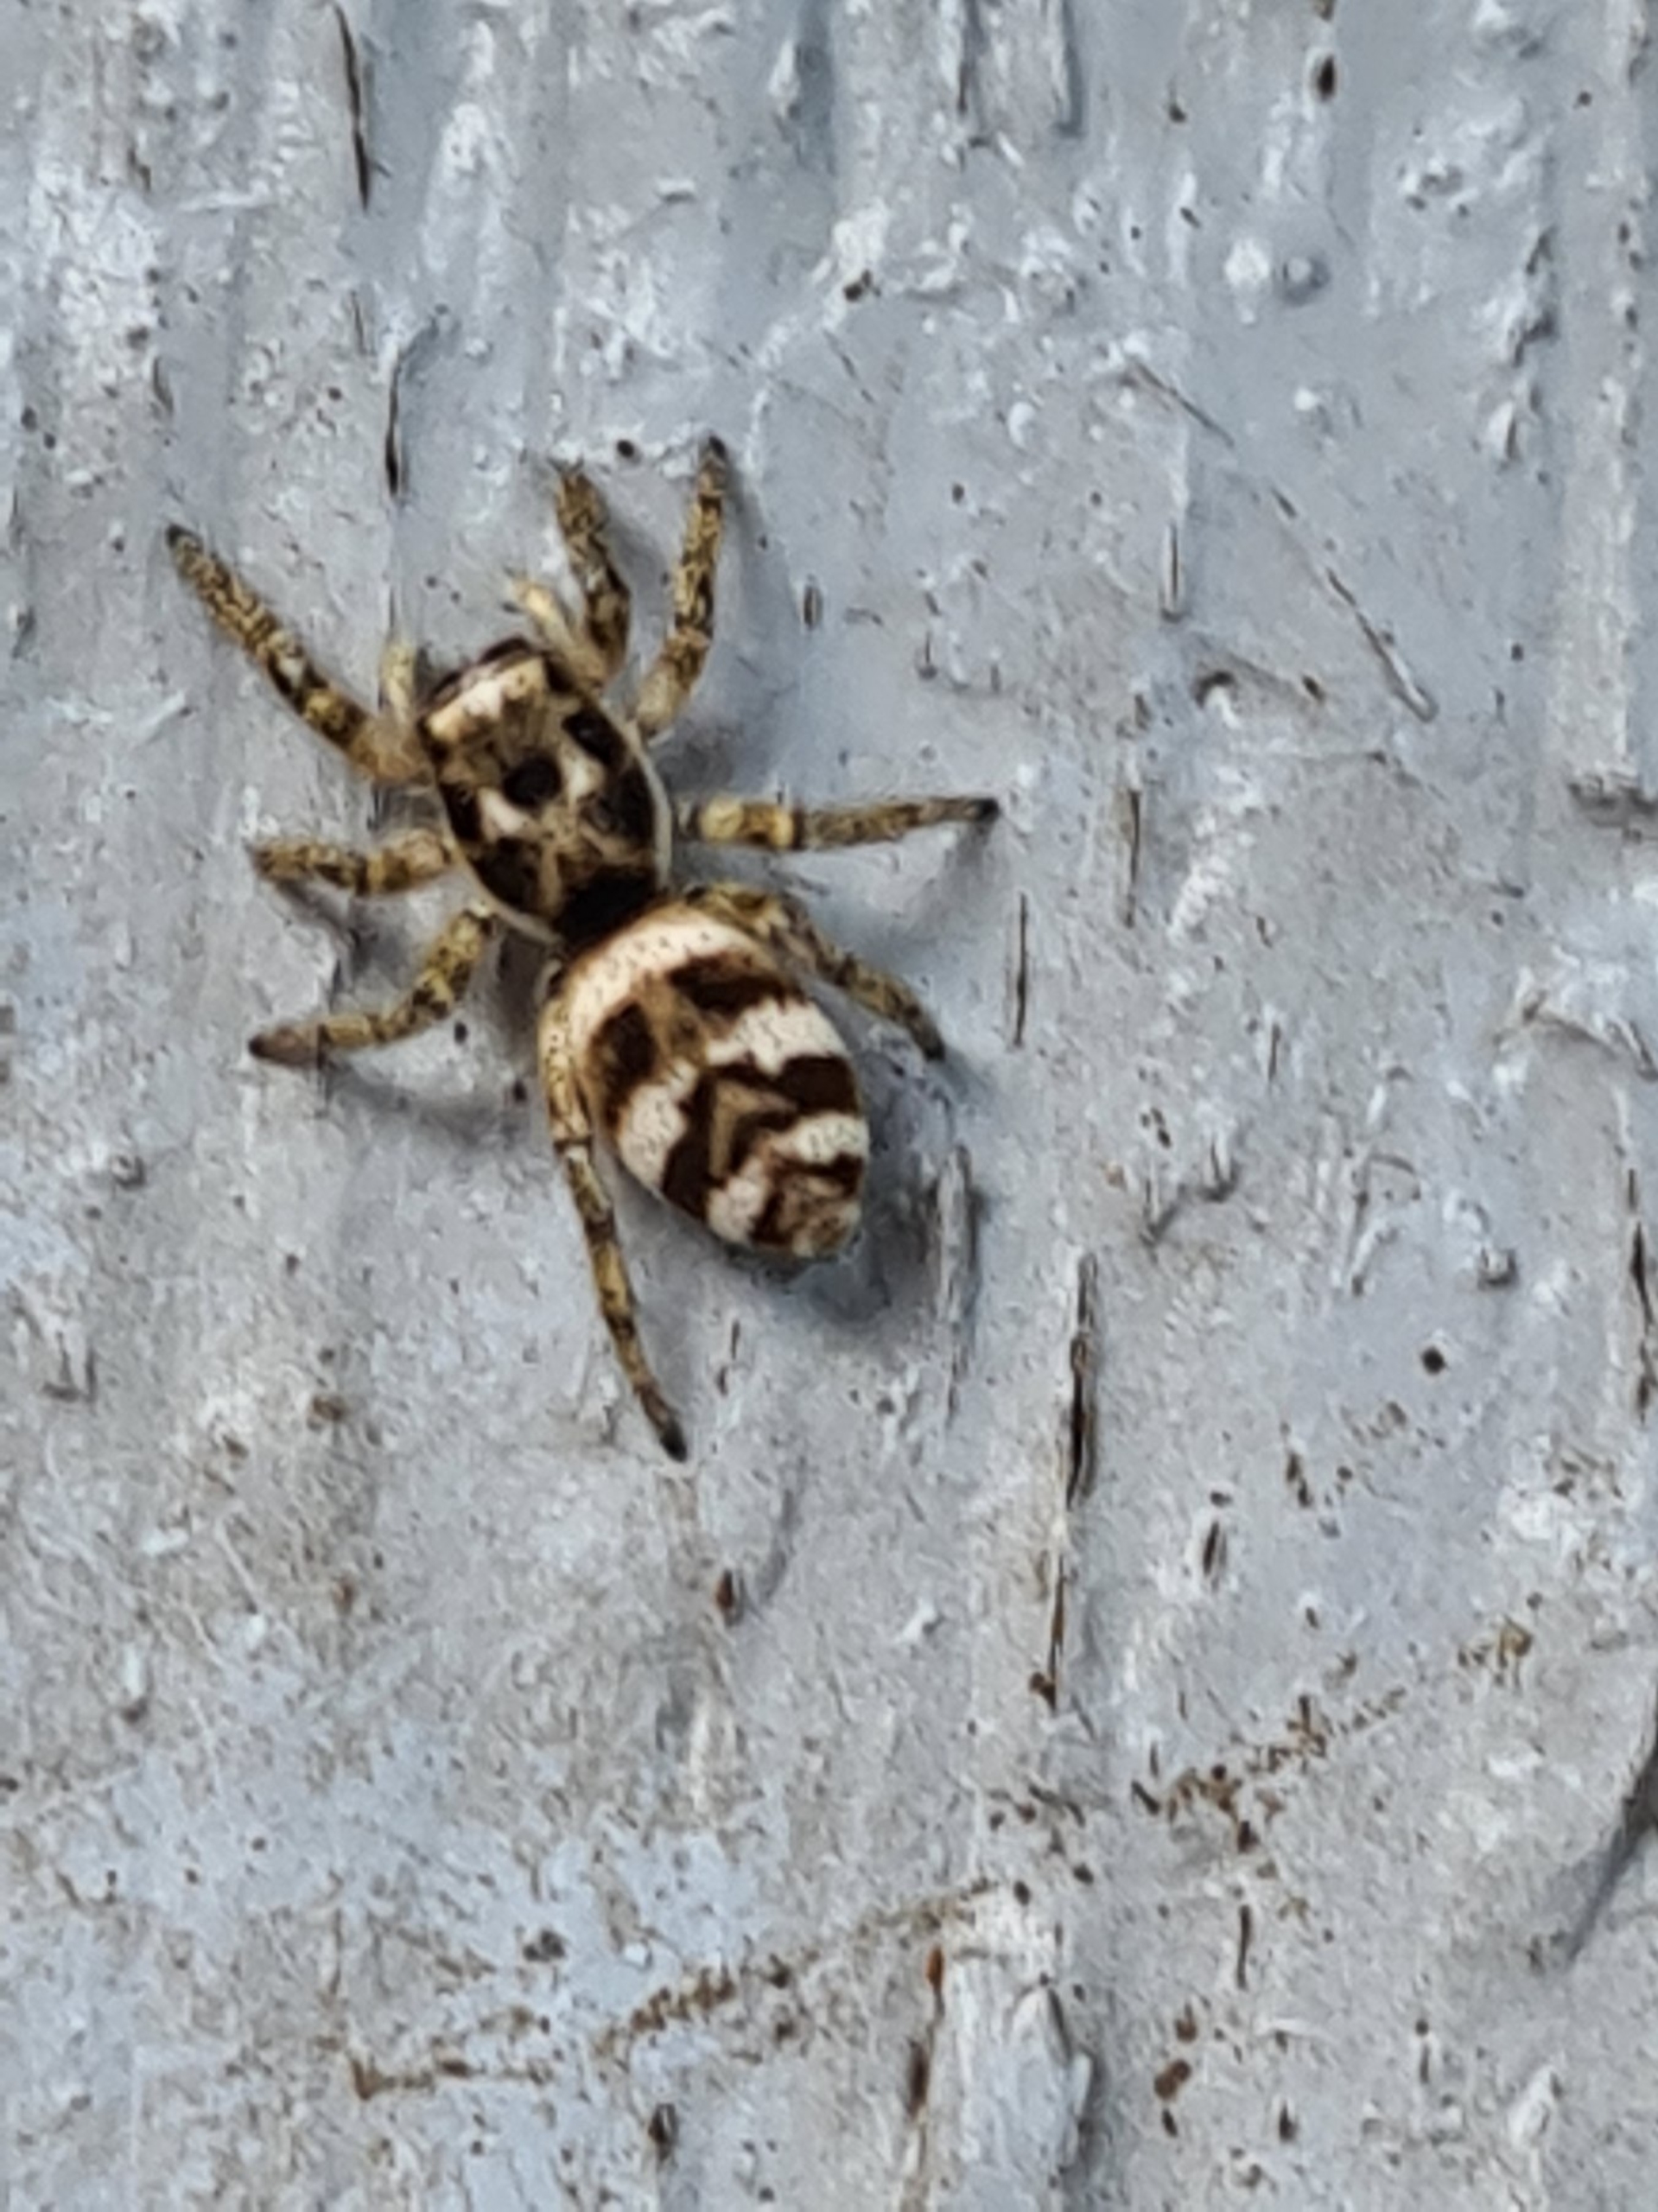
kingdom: Animalia
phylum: Arthropoda
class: Arachnida
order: Araneae
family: Salticidae
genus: Salticus
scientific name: Salticus scenicus
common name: Almindelig zebraedderkop
